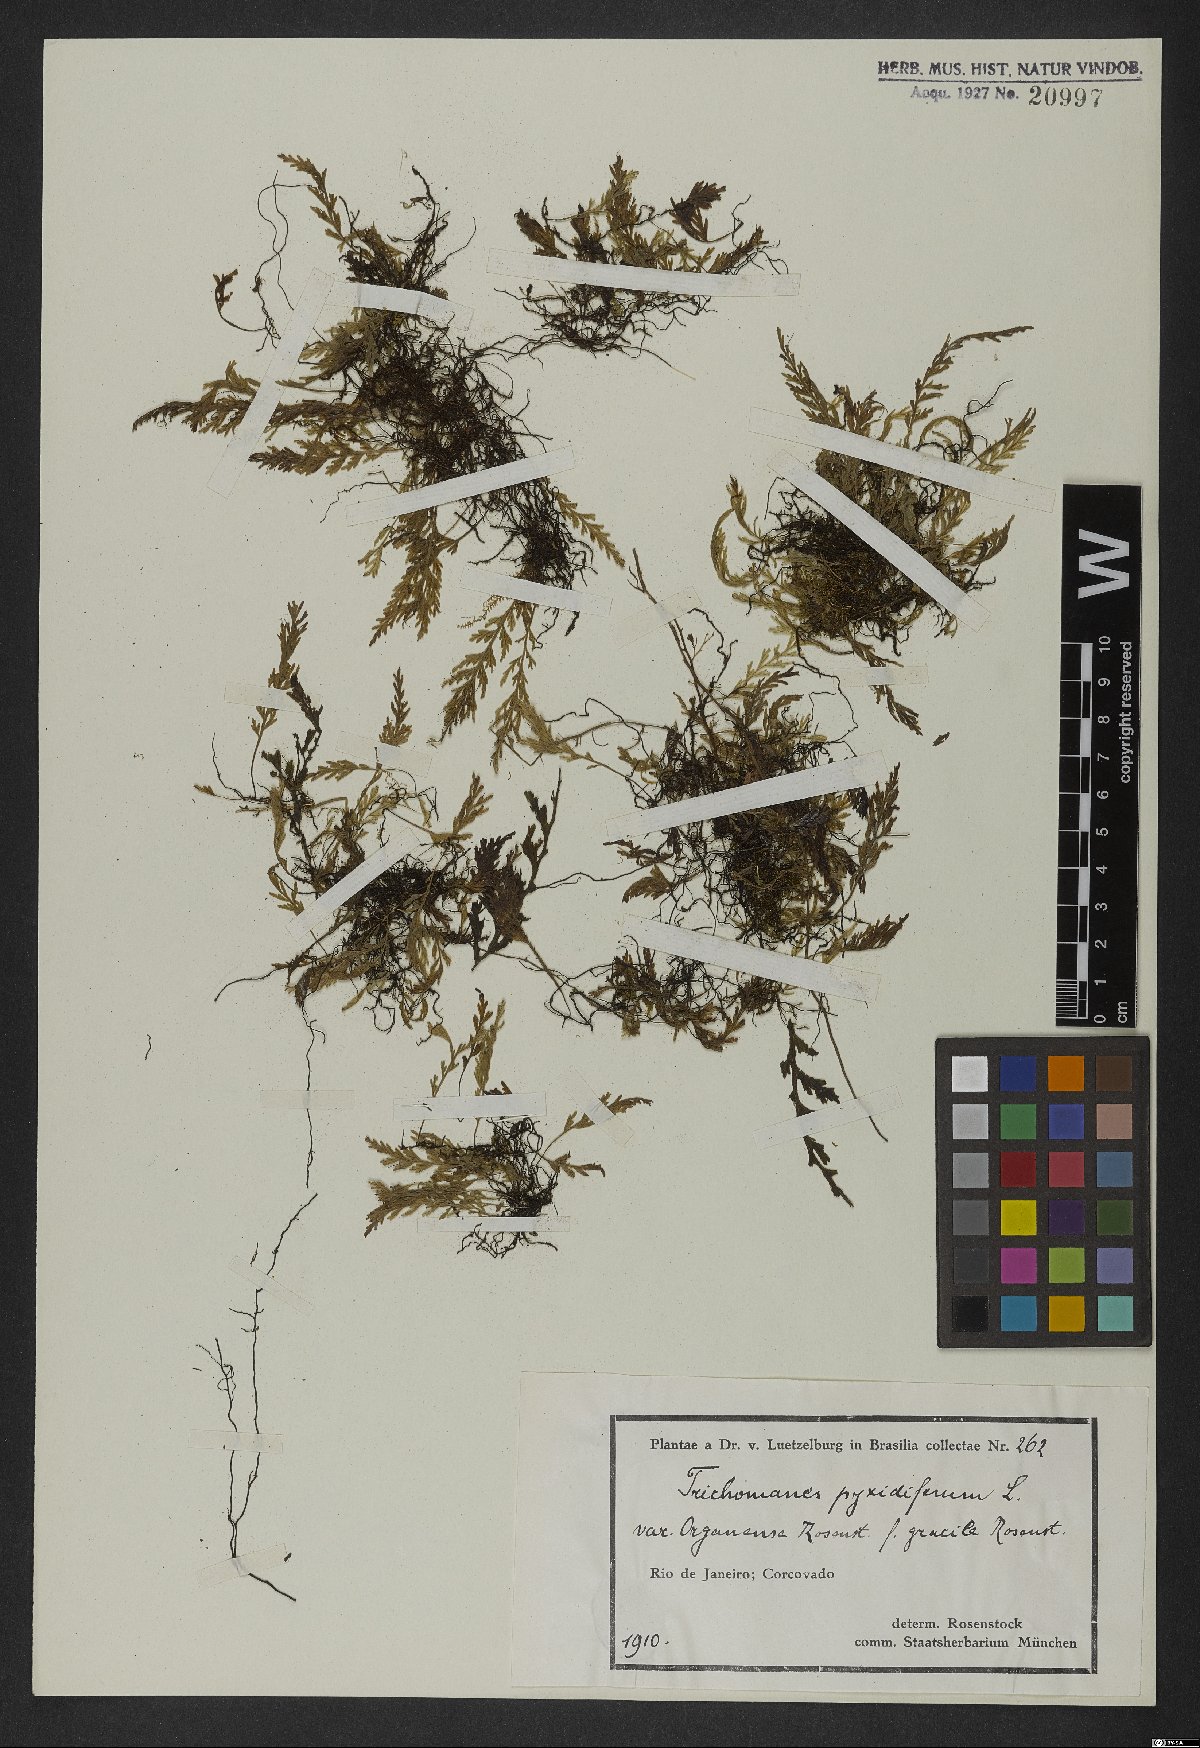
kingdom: Plantae
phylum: Tracheophyta
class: Polypodiopsida
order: Hymenophyllales
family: Hymenophyllaceae
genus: Polyphlebium
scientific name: Polyphlebium pyxidiferum
